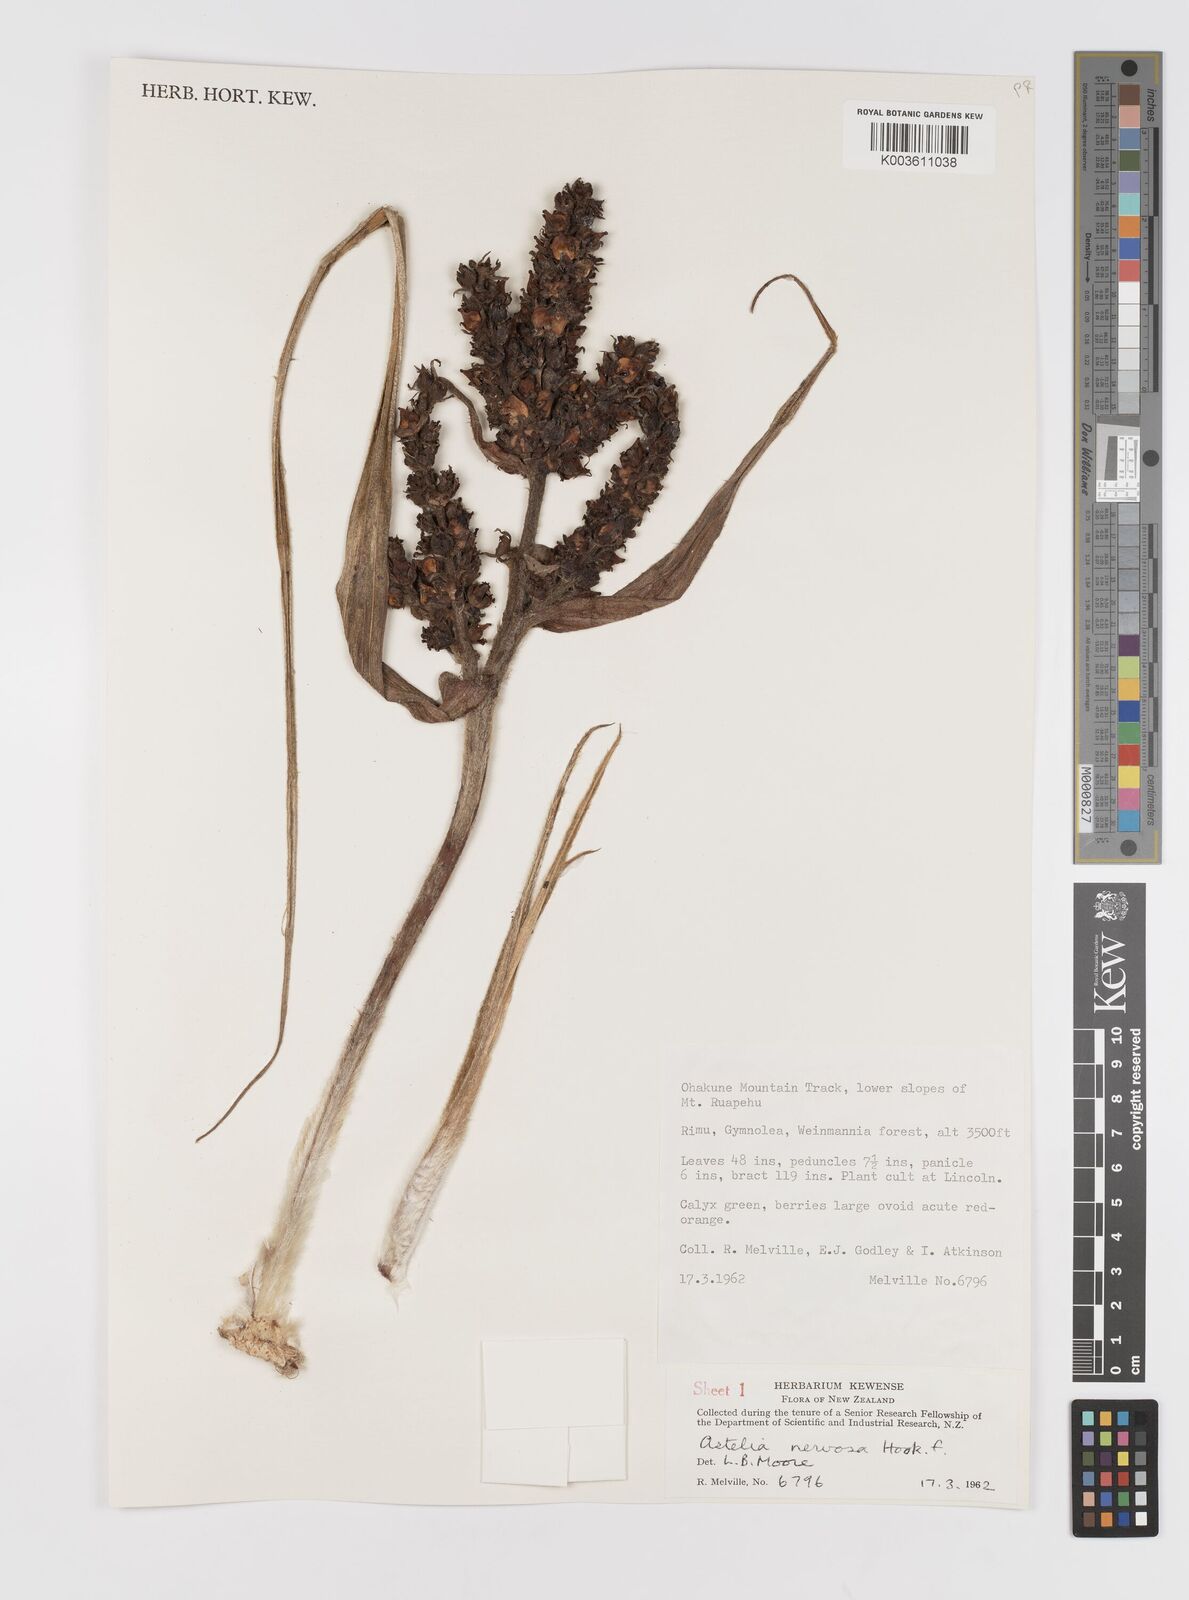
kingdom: Plantae
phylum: Tracheophyta
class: Liliopsida
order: Asparagales
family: Asteliaceae
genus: Astelia
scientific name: Astelia nervosa
